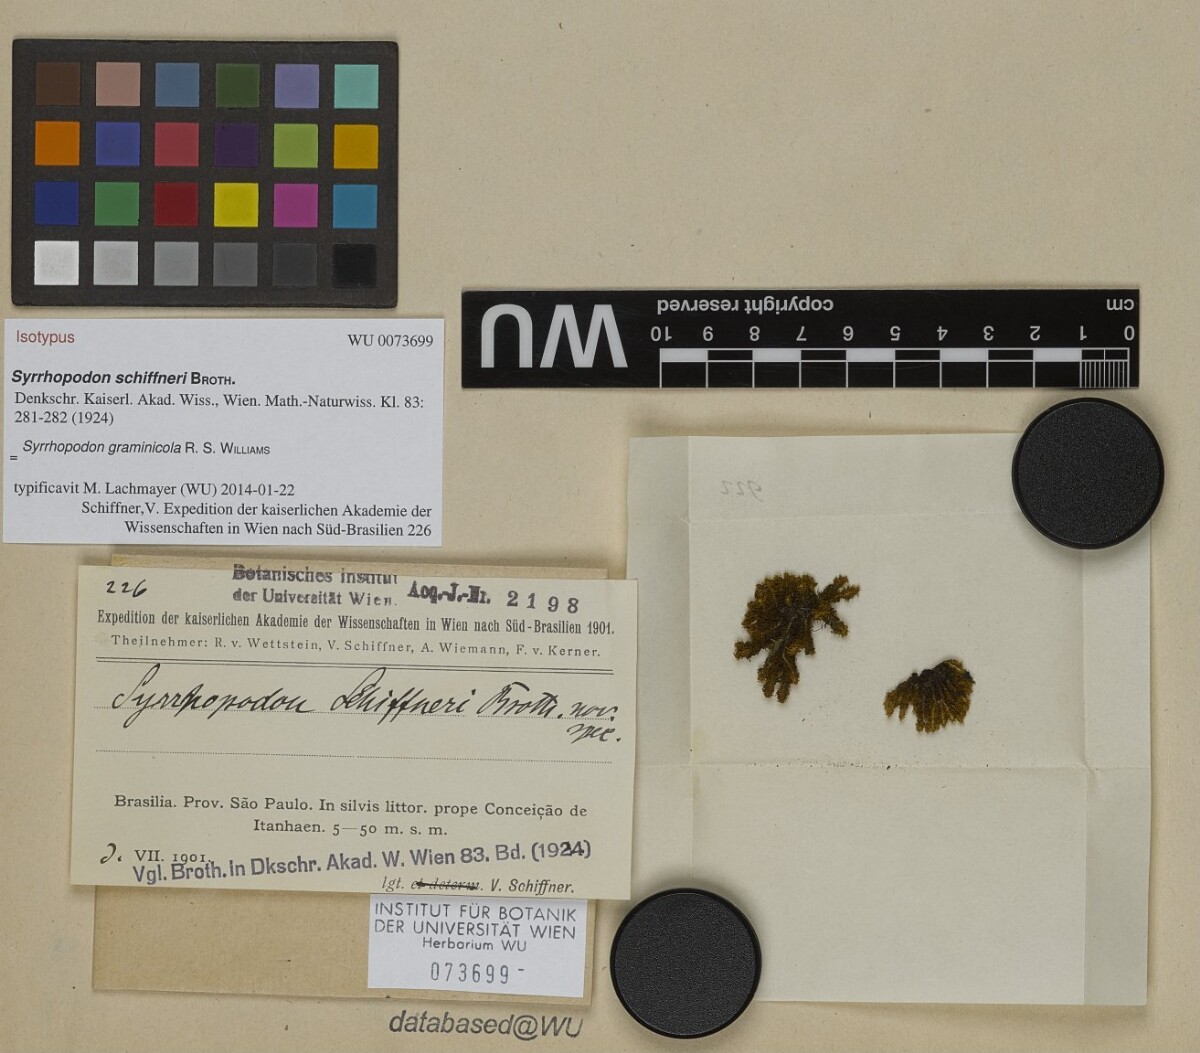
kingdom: Plantae
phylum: Bryophyta
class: Bryopsida
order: Dicranales
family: Calymperaceae
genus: Syrrhopodon
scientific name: Syrrhopodon graminicola
